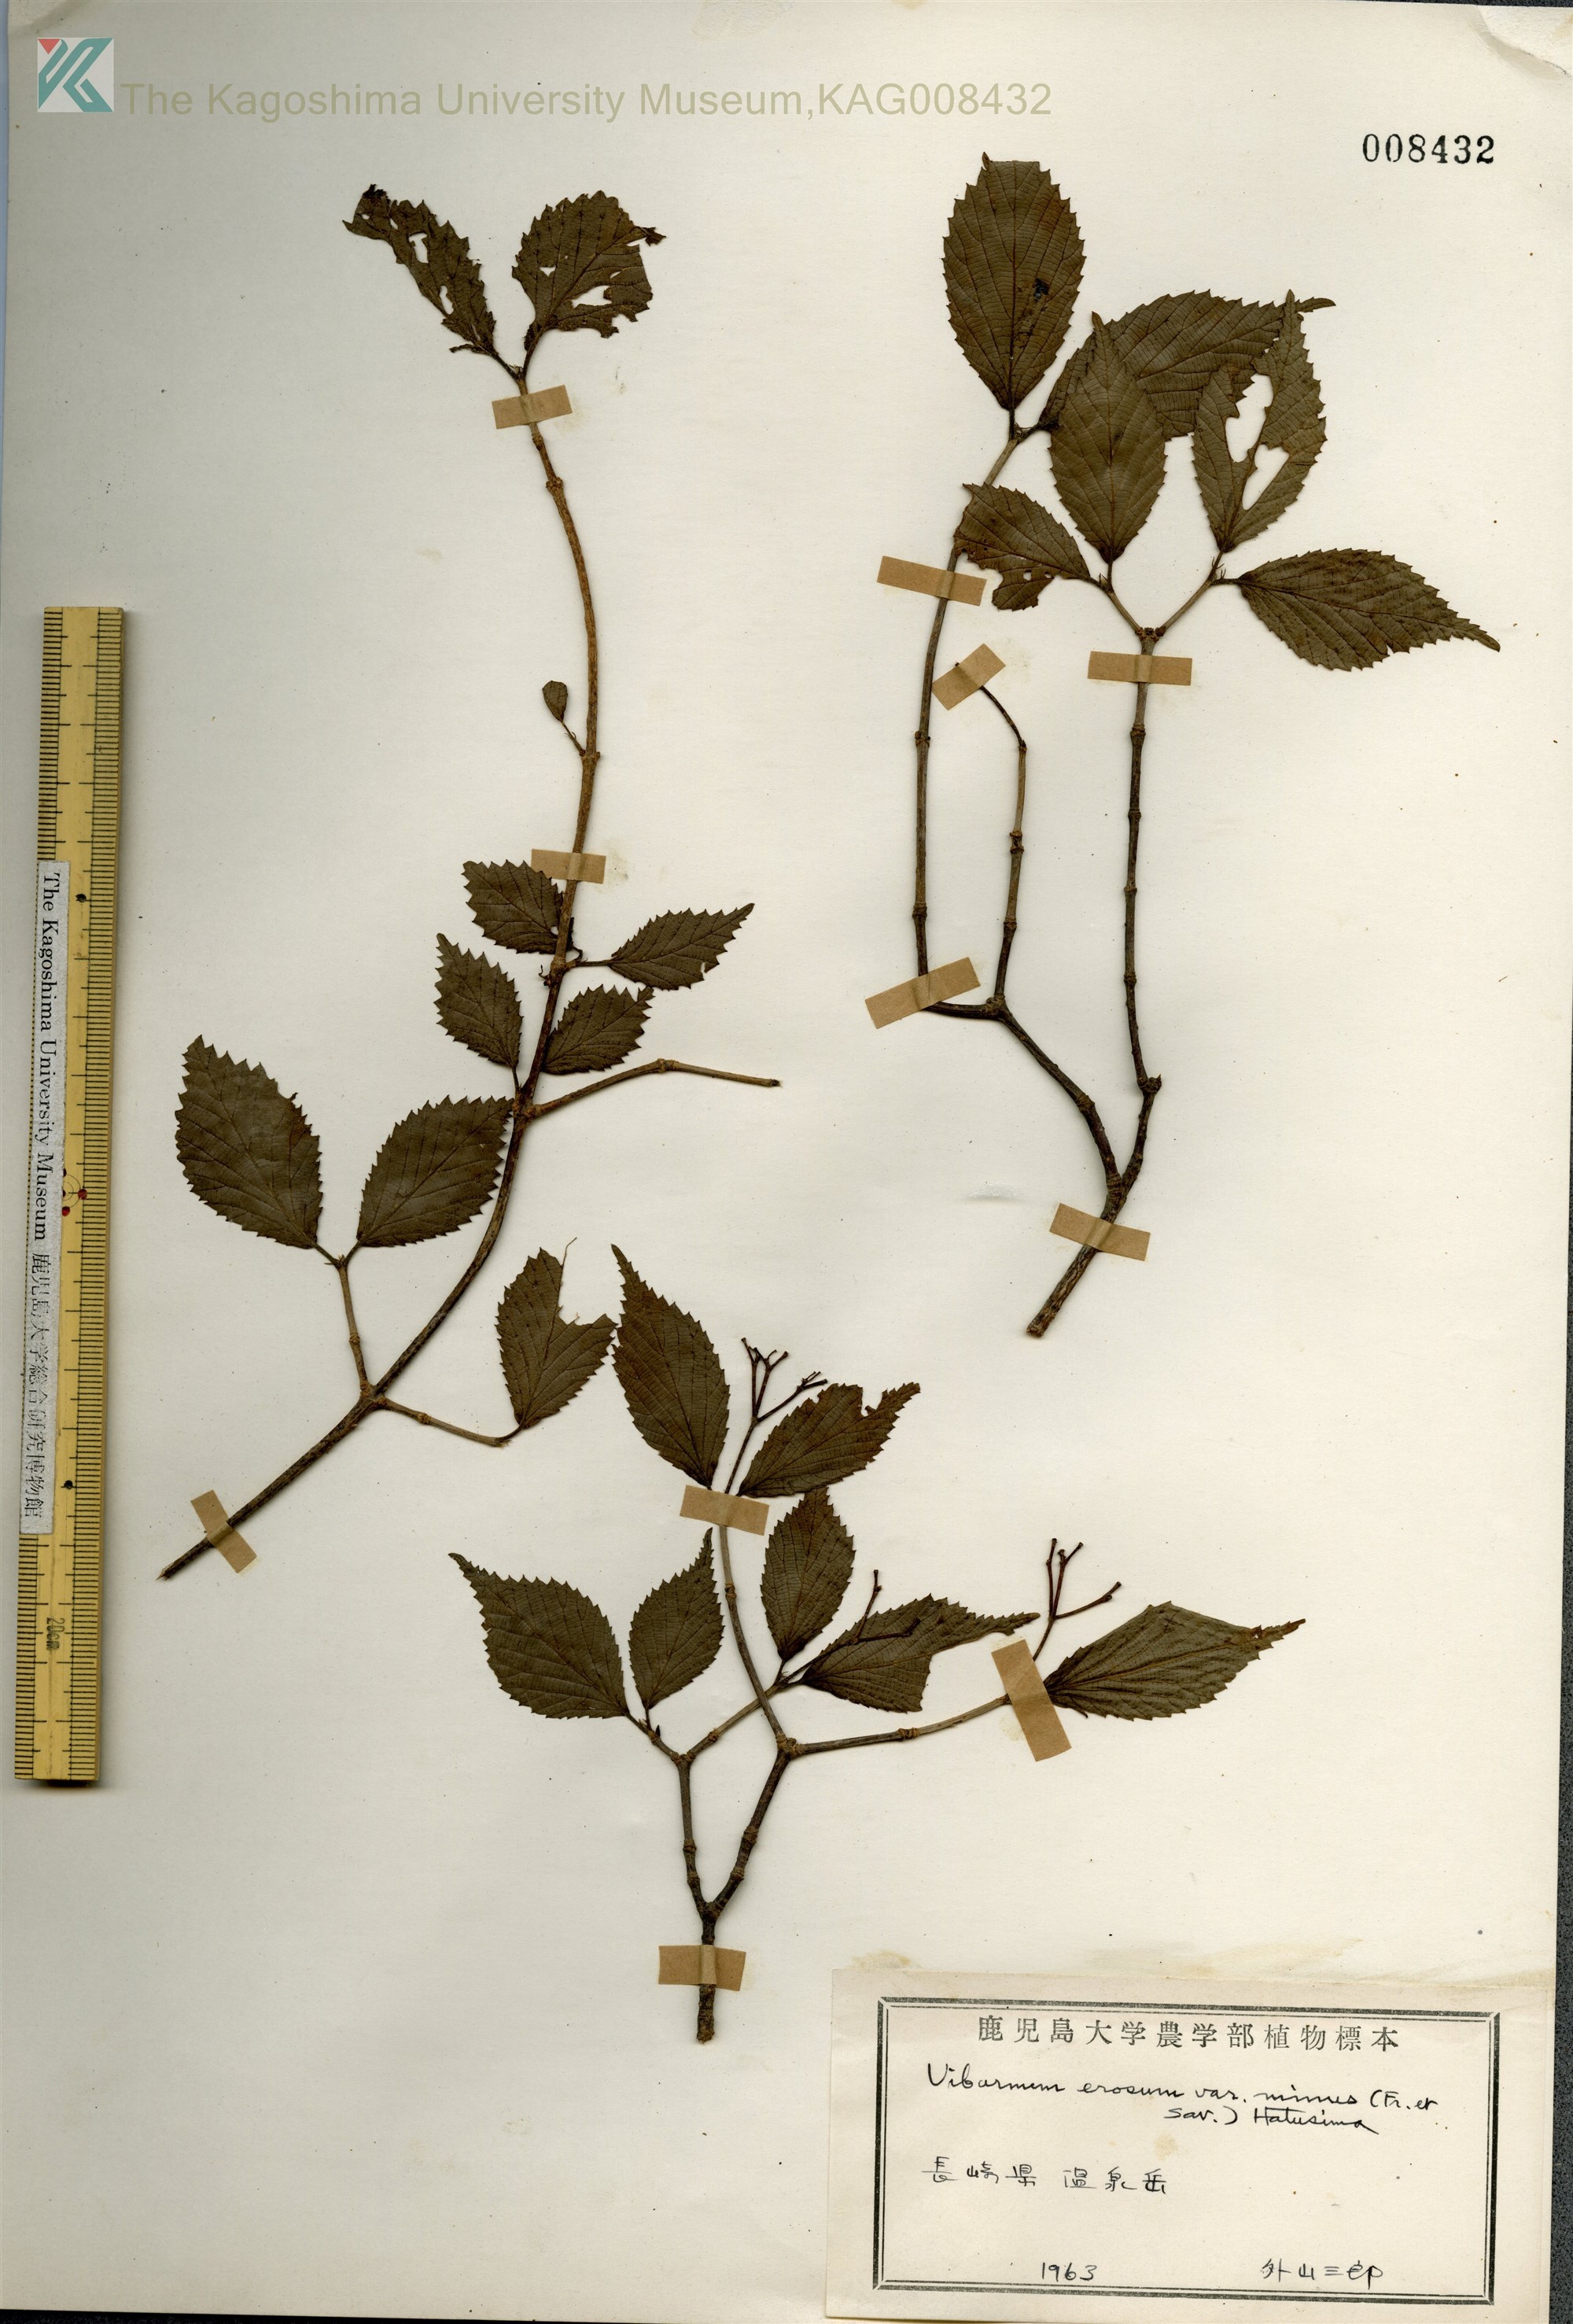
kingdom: Plantae
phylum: Tracheophyta
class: Magnoliopsida
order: Dipsacales
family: Viburnaceae
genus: Viburnum
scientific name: Viburnum erosum
